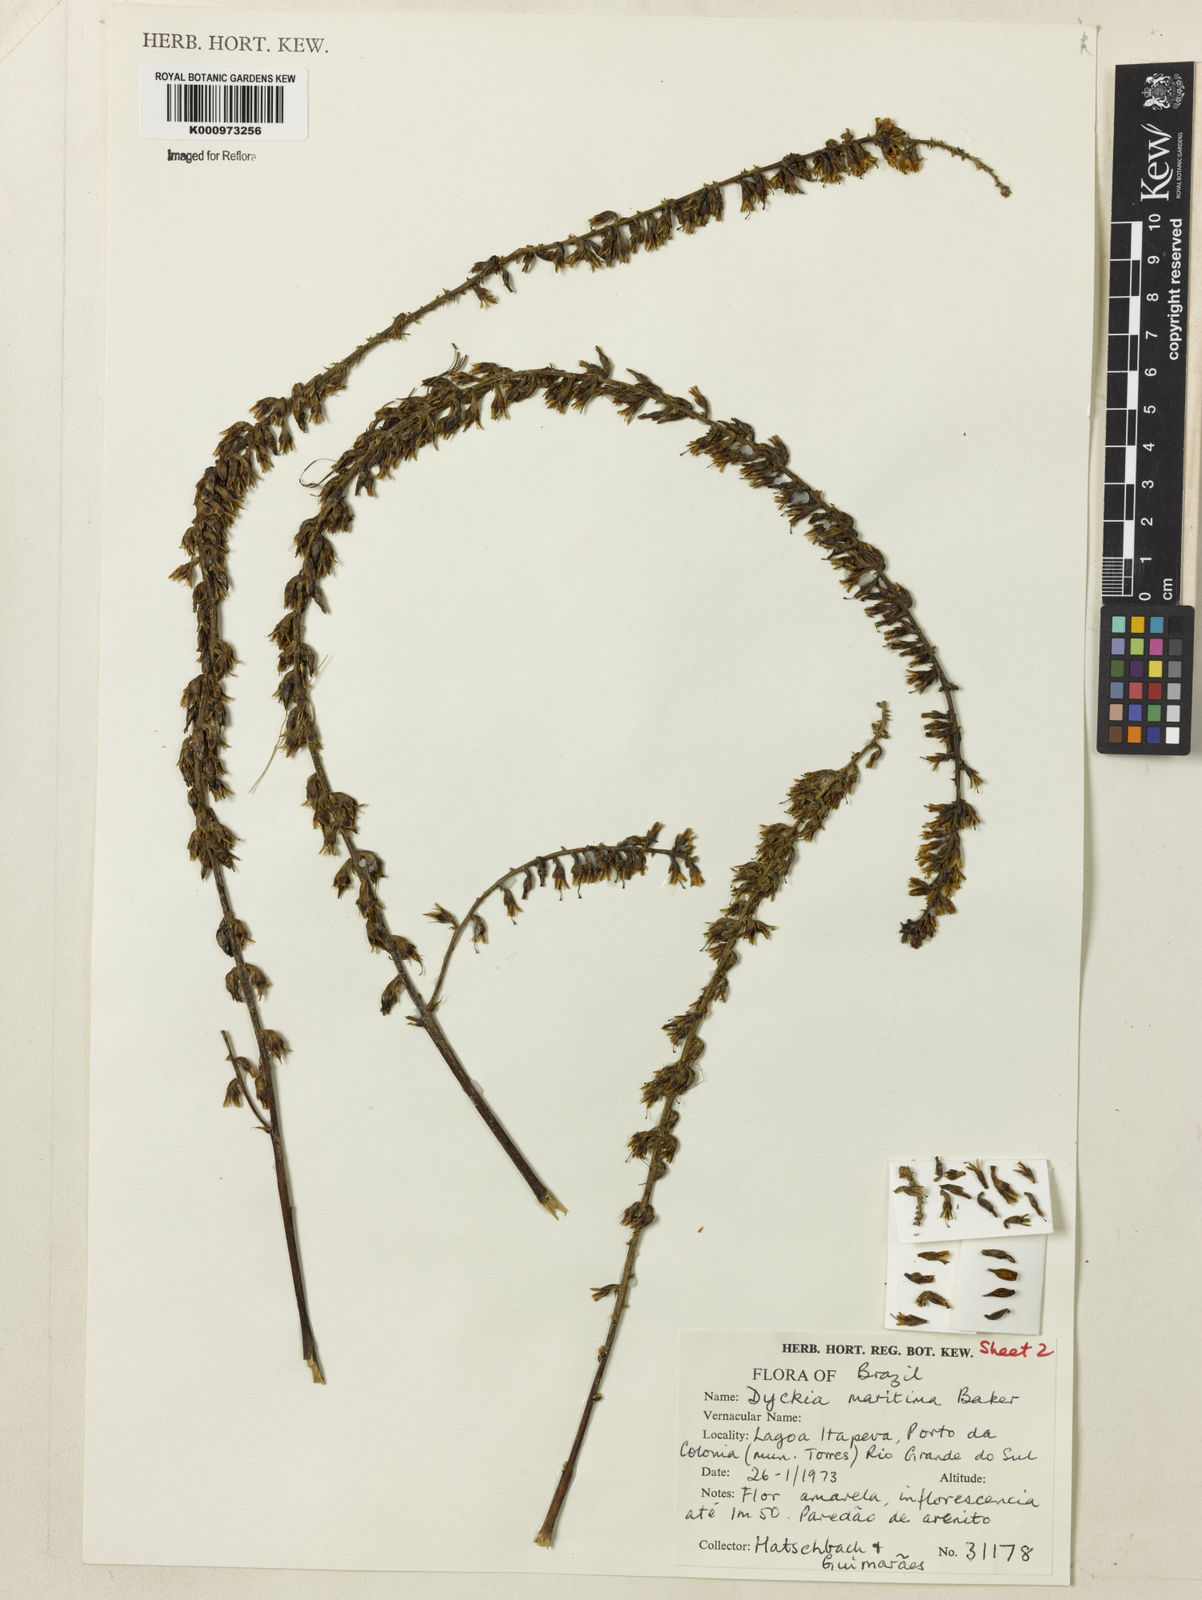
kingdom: Plantae
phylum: Tracheophyta
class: Liliopsida
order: Poales
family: Bromeliaceae
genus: Dyckia
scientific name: Dyckia maritima
